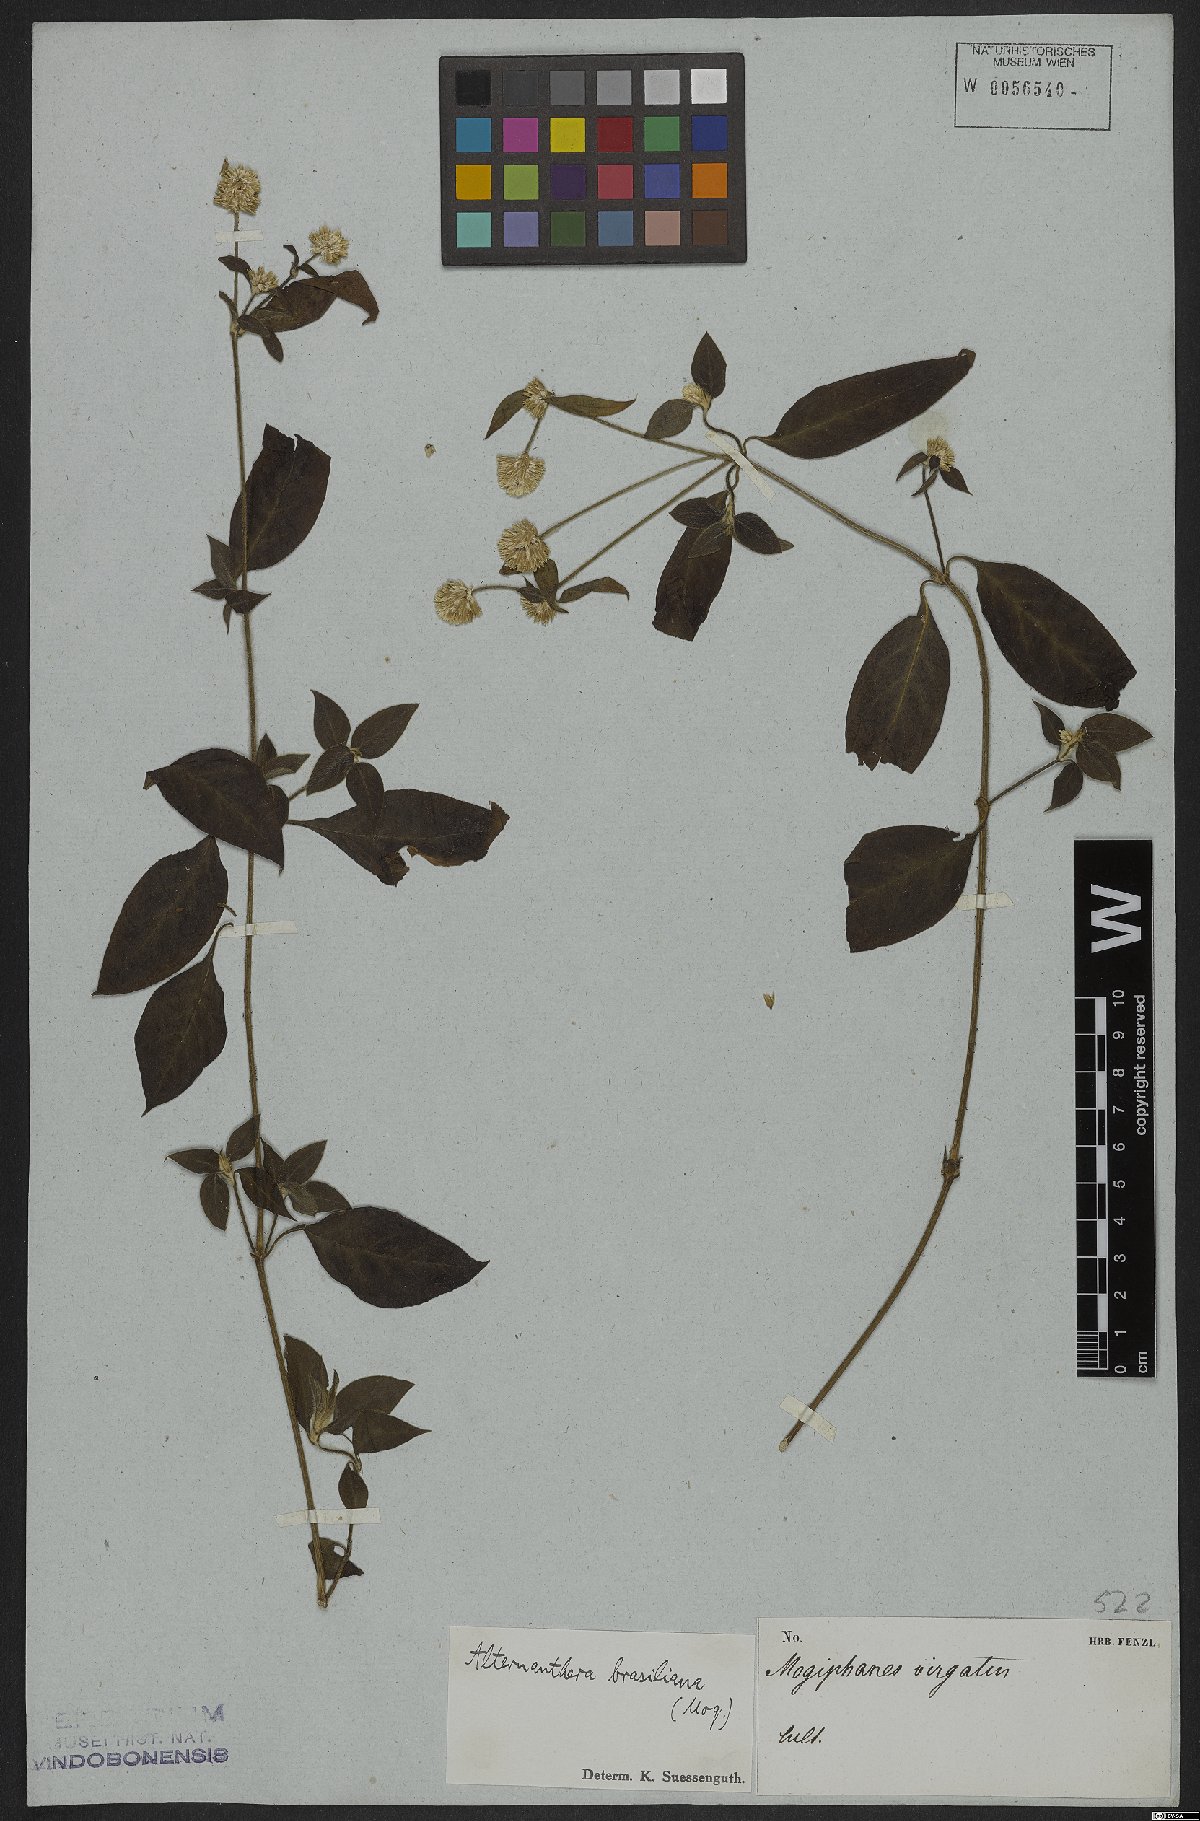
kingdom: Plantae
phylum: Tracheophyta
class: Magnoliopsida
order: Caryophyllales
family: Amaranthaceae
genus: Alternanthera
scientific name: Alternanthera brasiliana
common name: Brazilian joyweed
